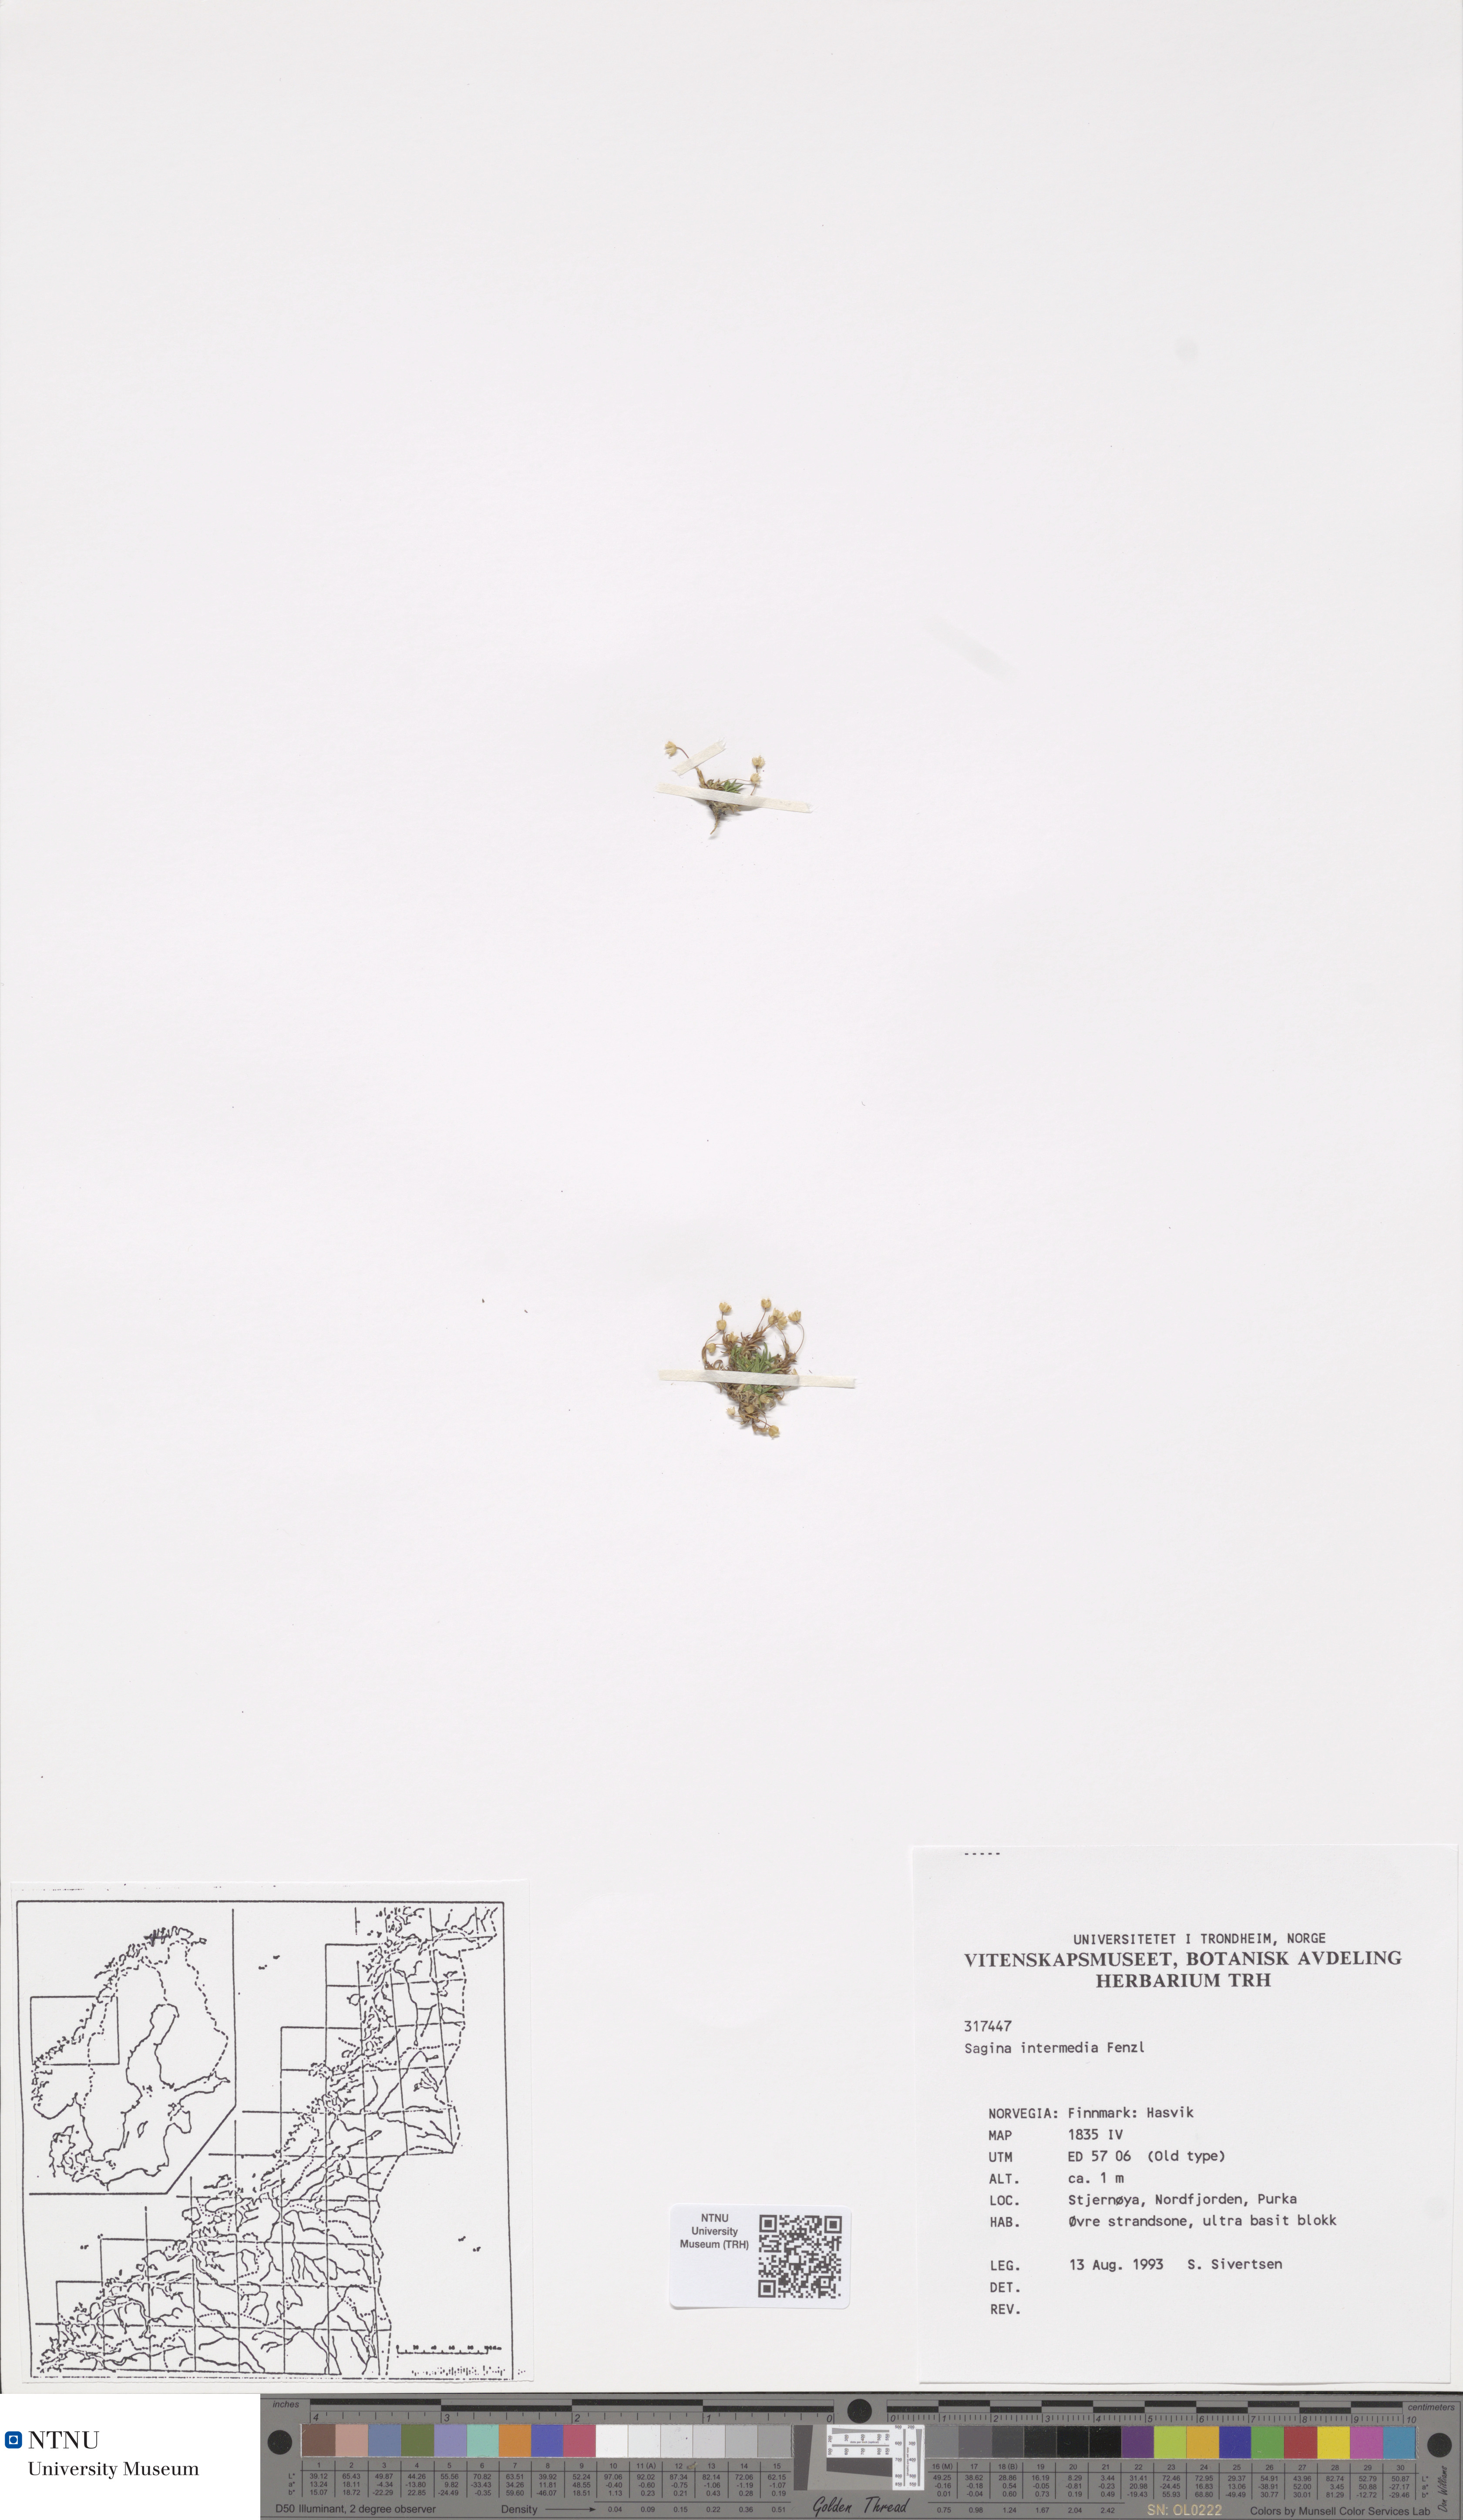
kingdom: Plantae
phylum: Tracheophyta
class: Magnoliopsida
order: Caryophyllales
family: Caryophyllaceae
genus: Sagina
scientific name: Sagina nivalis
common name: Snow pearlwort
